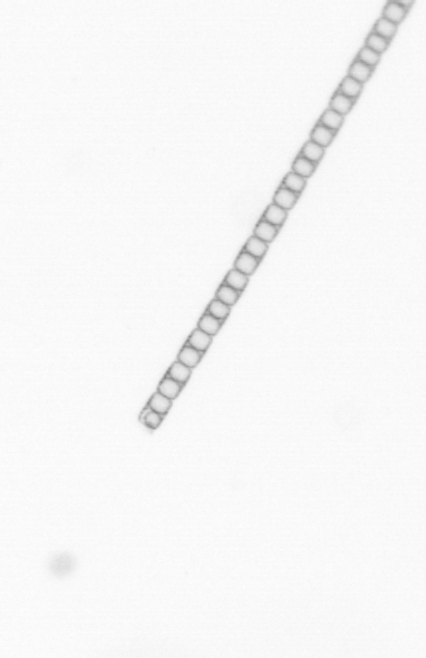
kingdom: Chromista
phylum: Ochrophyta
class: Bacillariophyceae
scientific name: Bacillariophyceae
